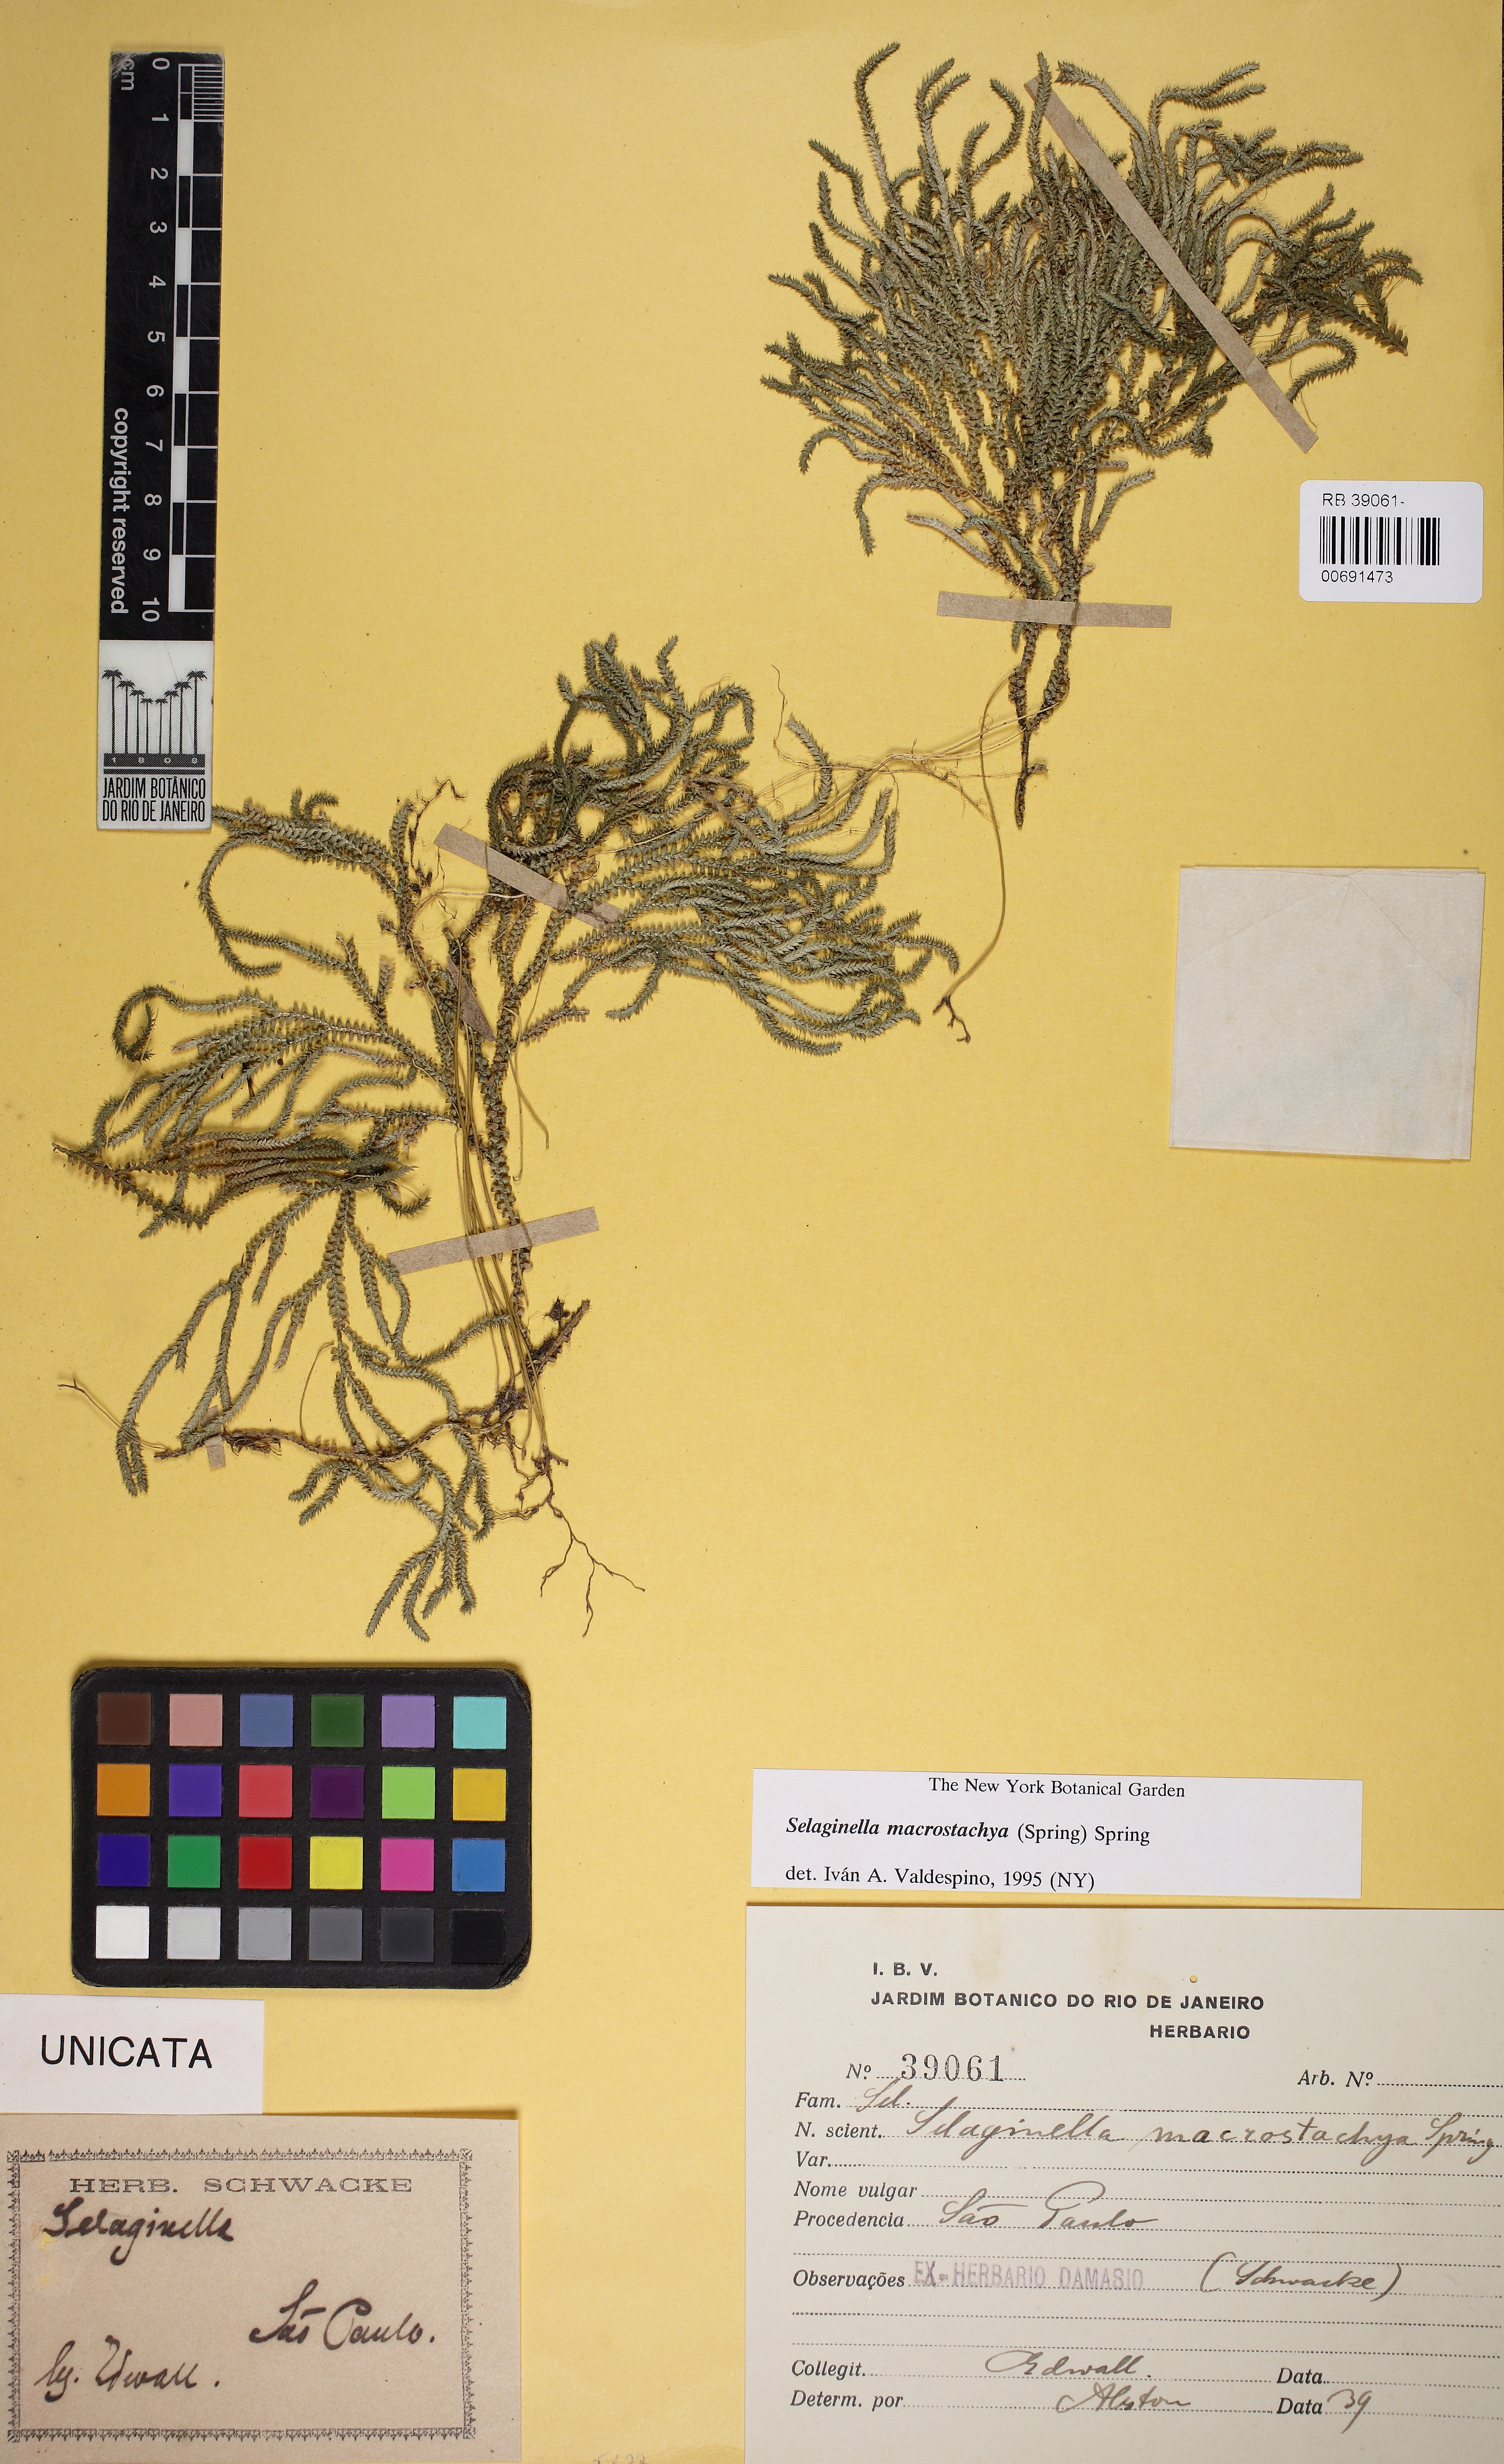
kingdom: Plantae
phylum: Tracheophyta
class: Lycopodiopsida
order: Selaginellales
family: Selaginellaceae
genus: Selaginella
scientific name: Selaginella macrostachya
